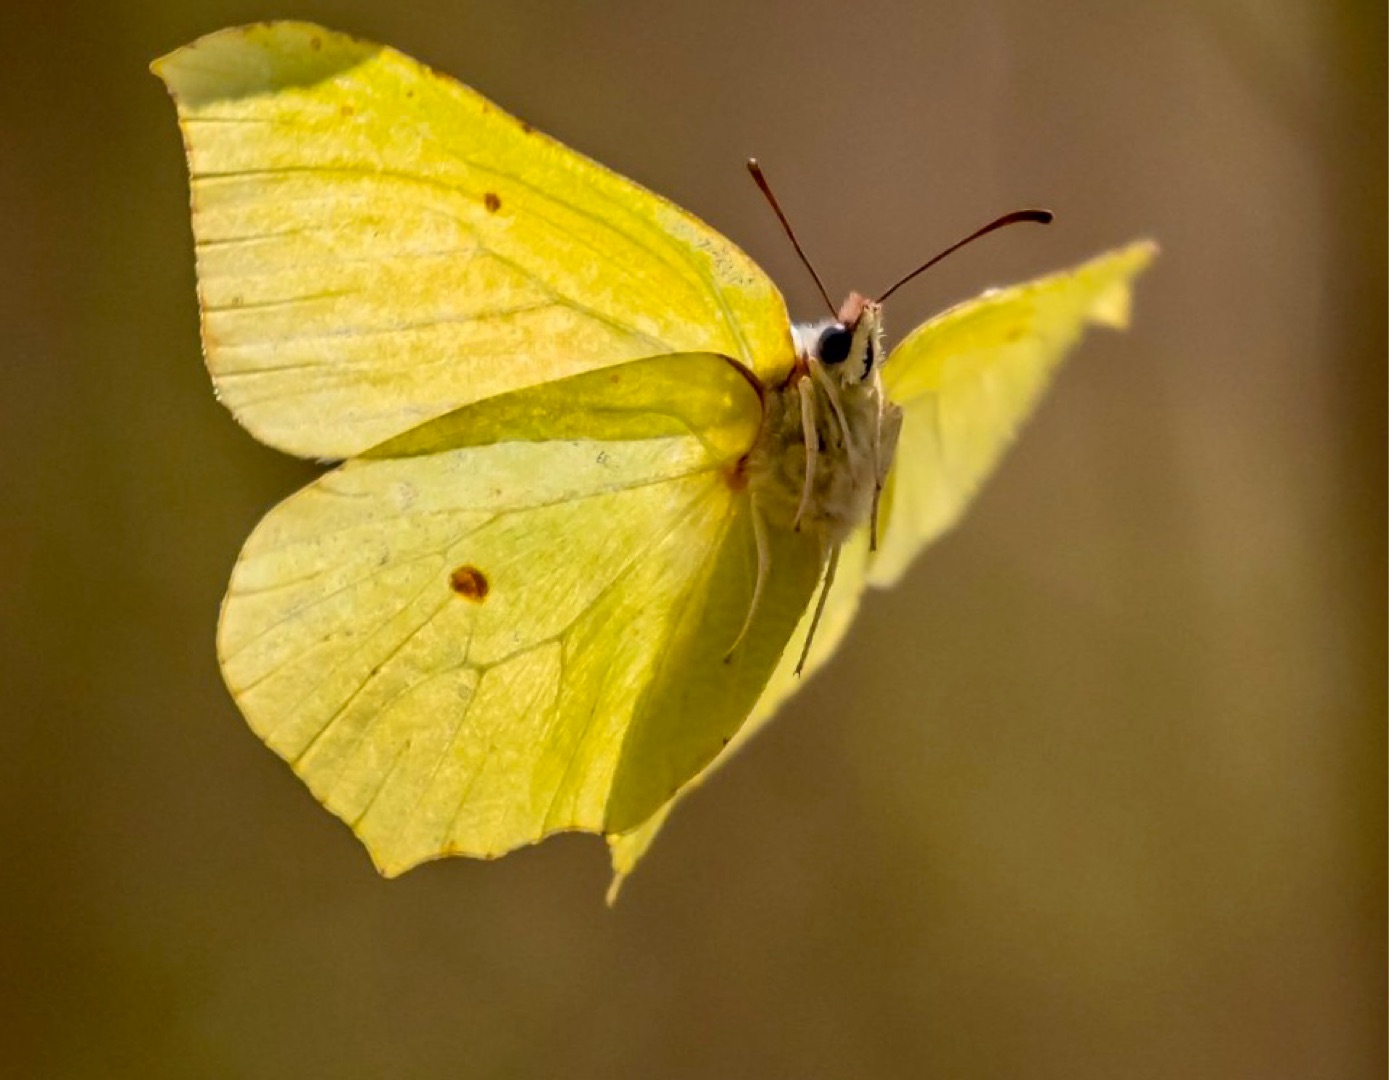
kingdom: Animalia
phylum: Arthropoda
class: Insecta
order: Lepidoptera
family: Pieridae
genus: Gonepteryx
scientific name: Gonepteryx rhamni
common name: Citronsommerfugl
